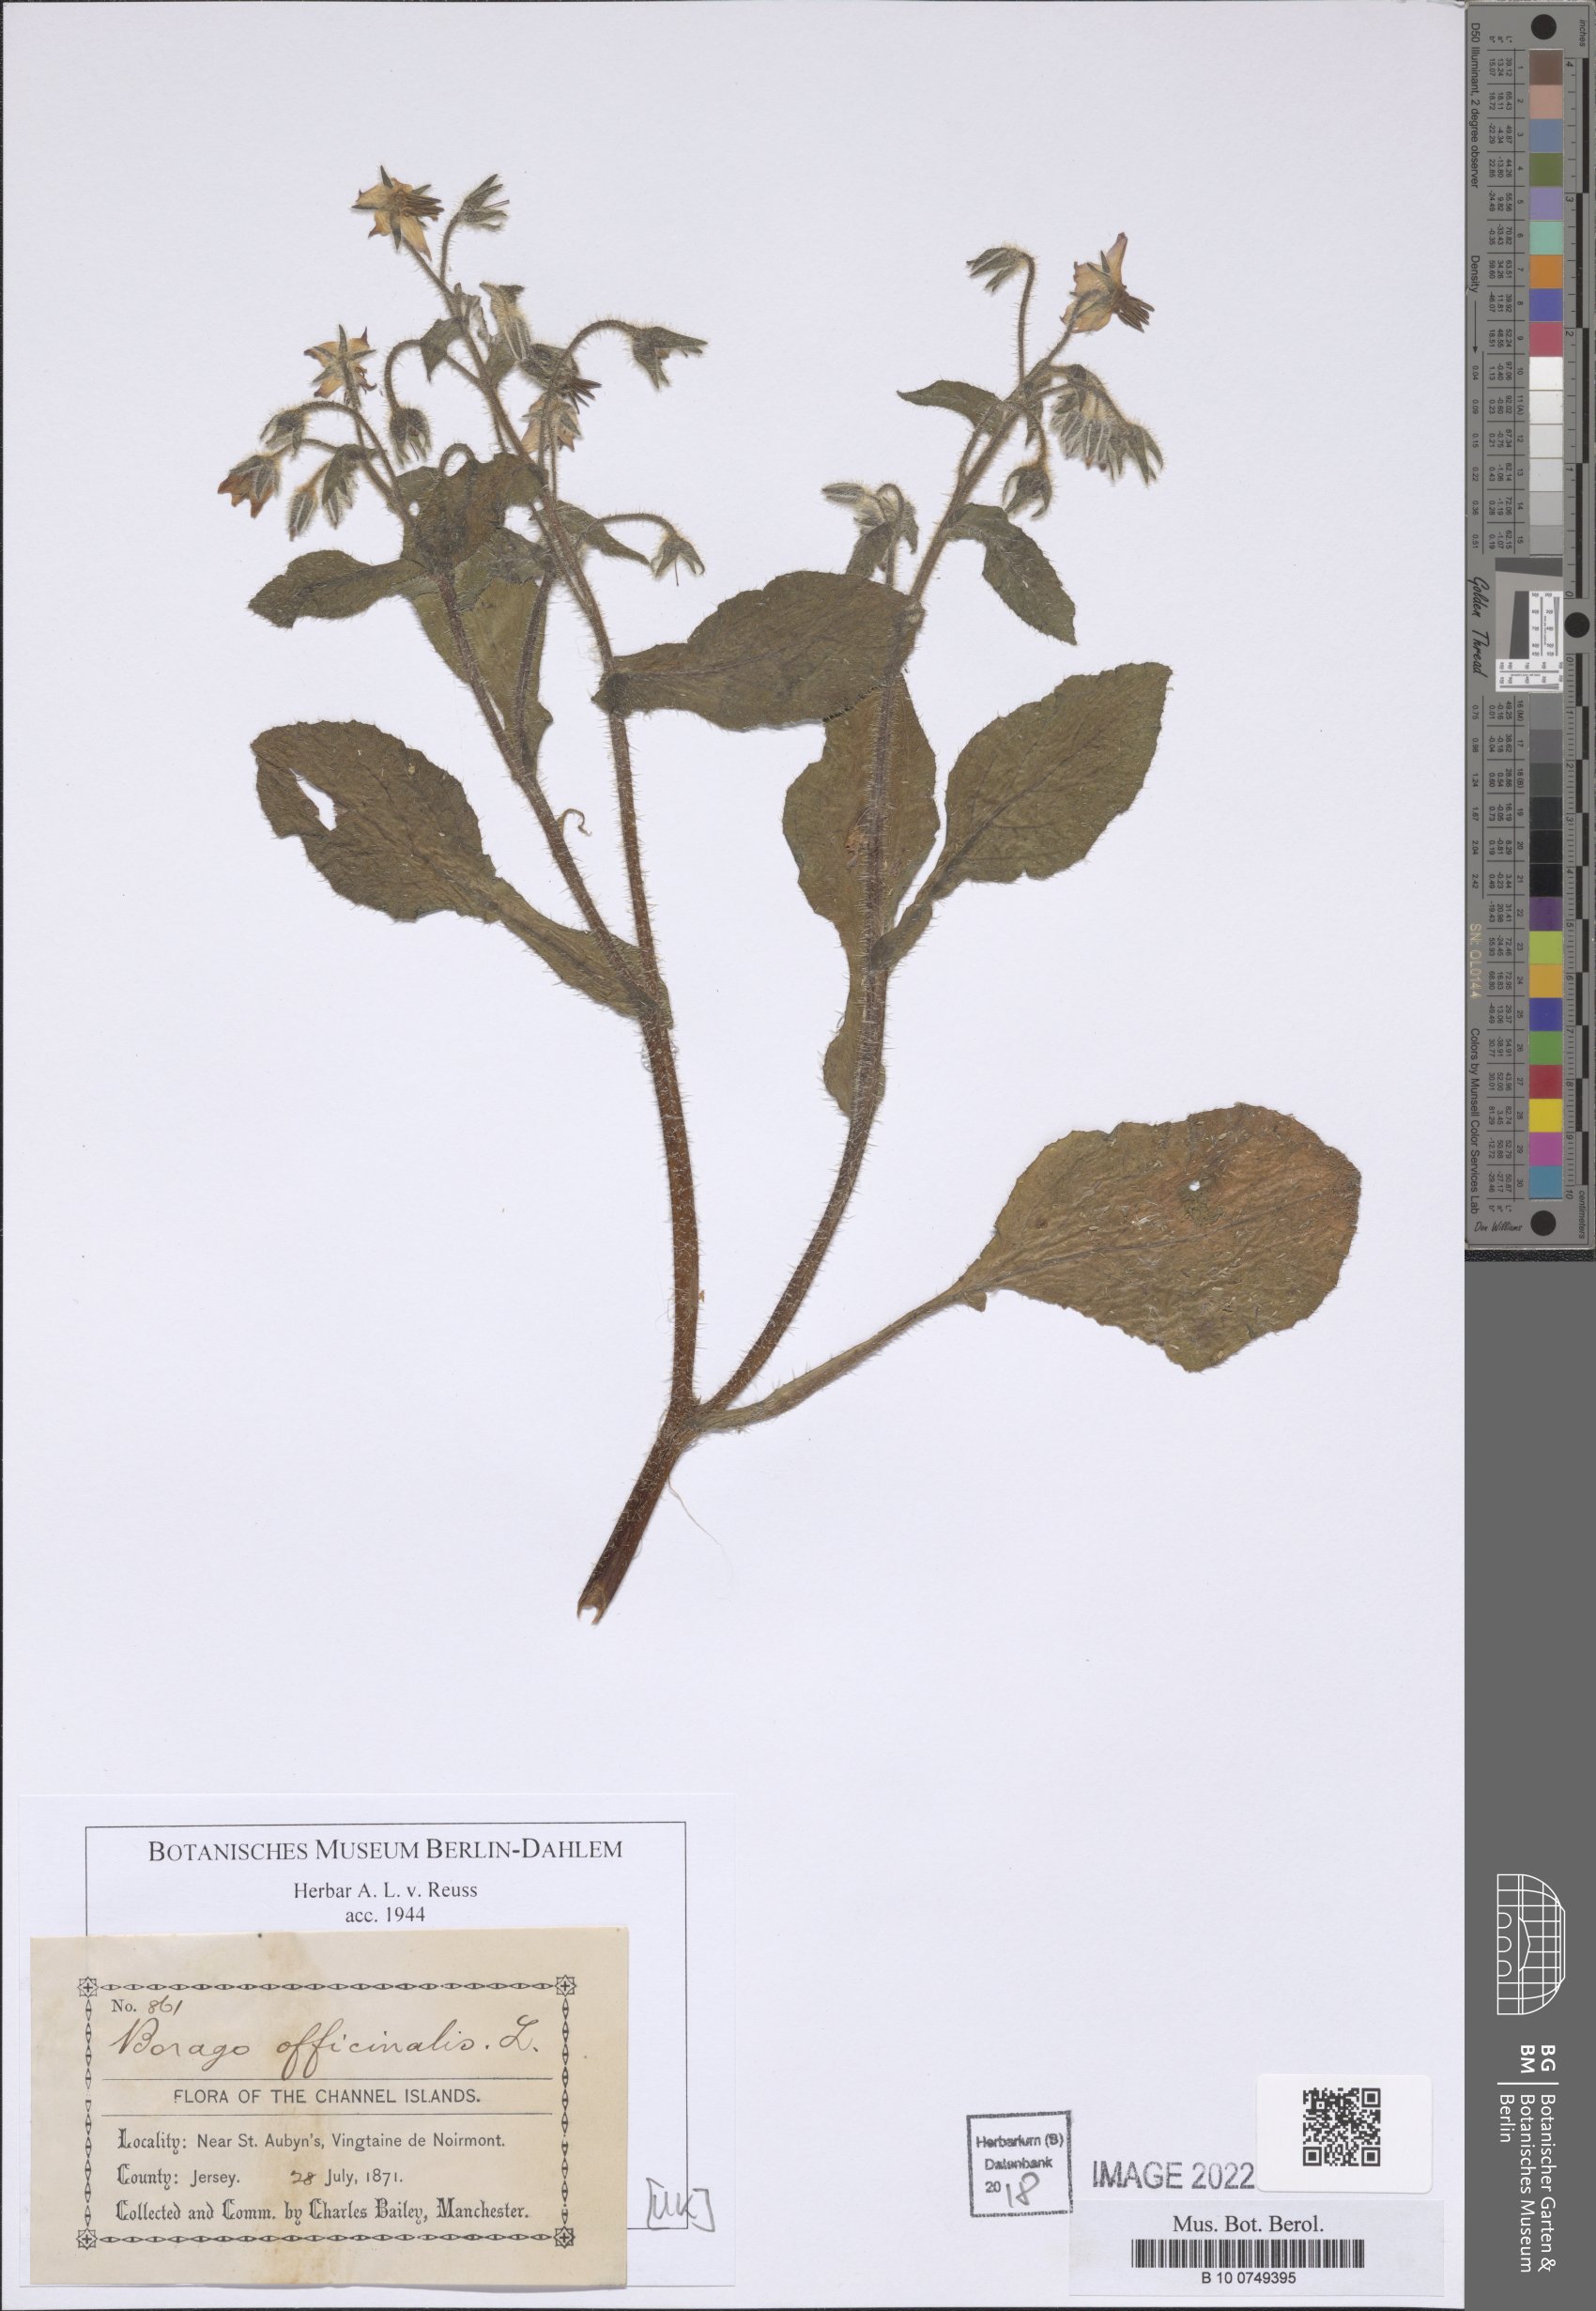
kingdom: Plantae
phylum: Tracheophyta
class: Magnoliopsida
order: Boraginales
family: Boraginaceae
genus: Borago
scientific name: Borago officinalis
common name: Borage
